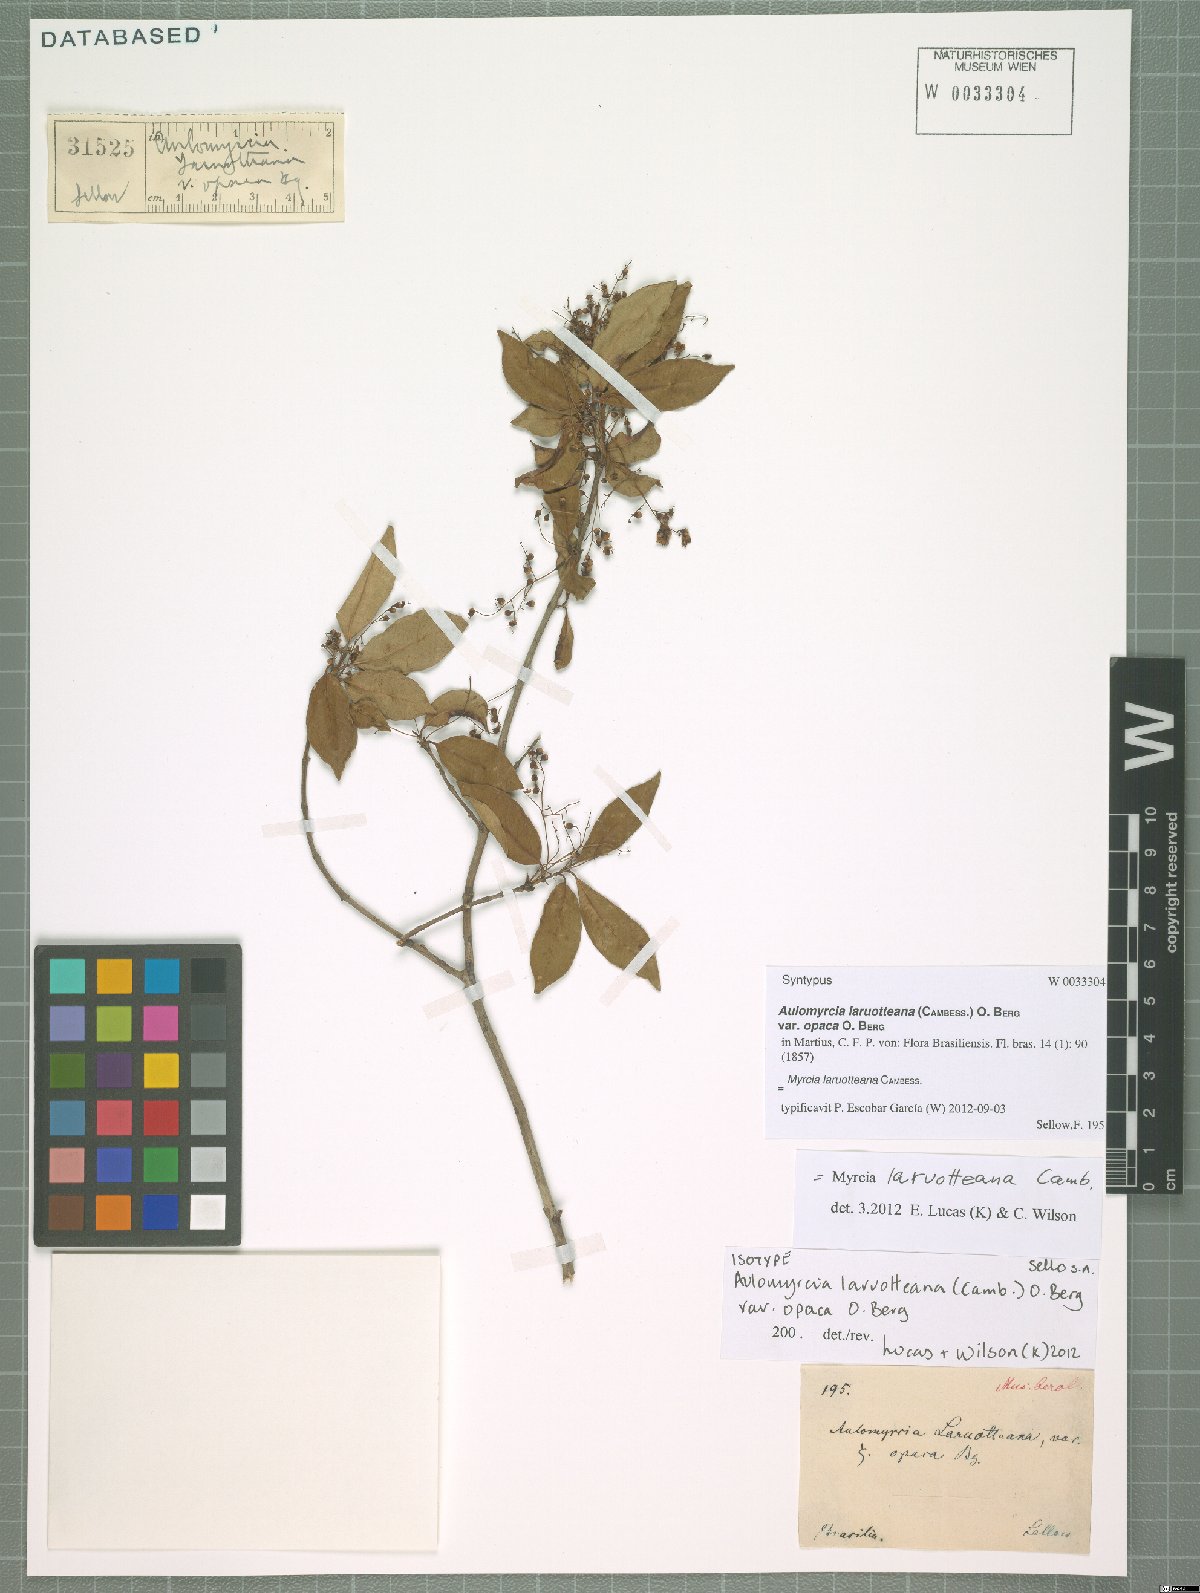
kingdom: Plantae
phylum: Tracheophyta
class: Magnoliopsida
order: Myrtales
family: Myrtaceae
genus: Myrcia
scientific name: Myrcia laruotteana
